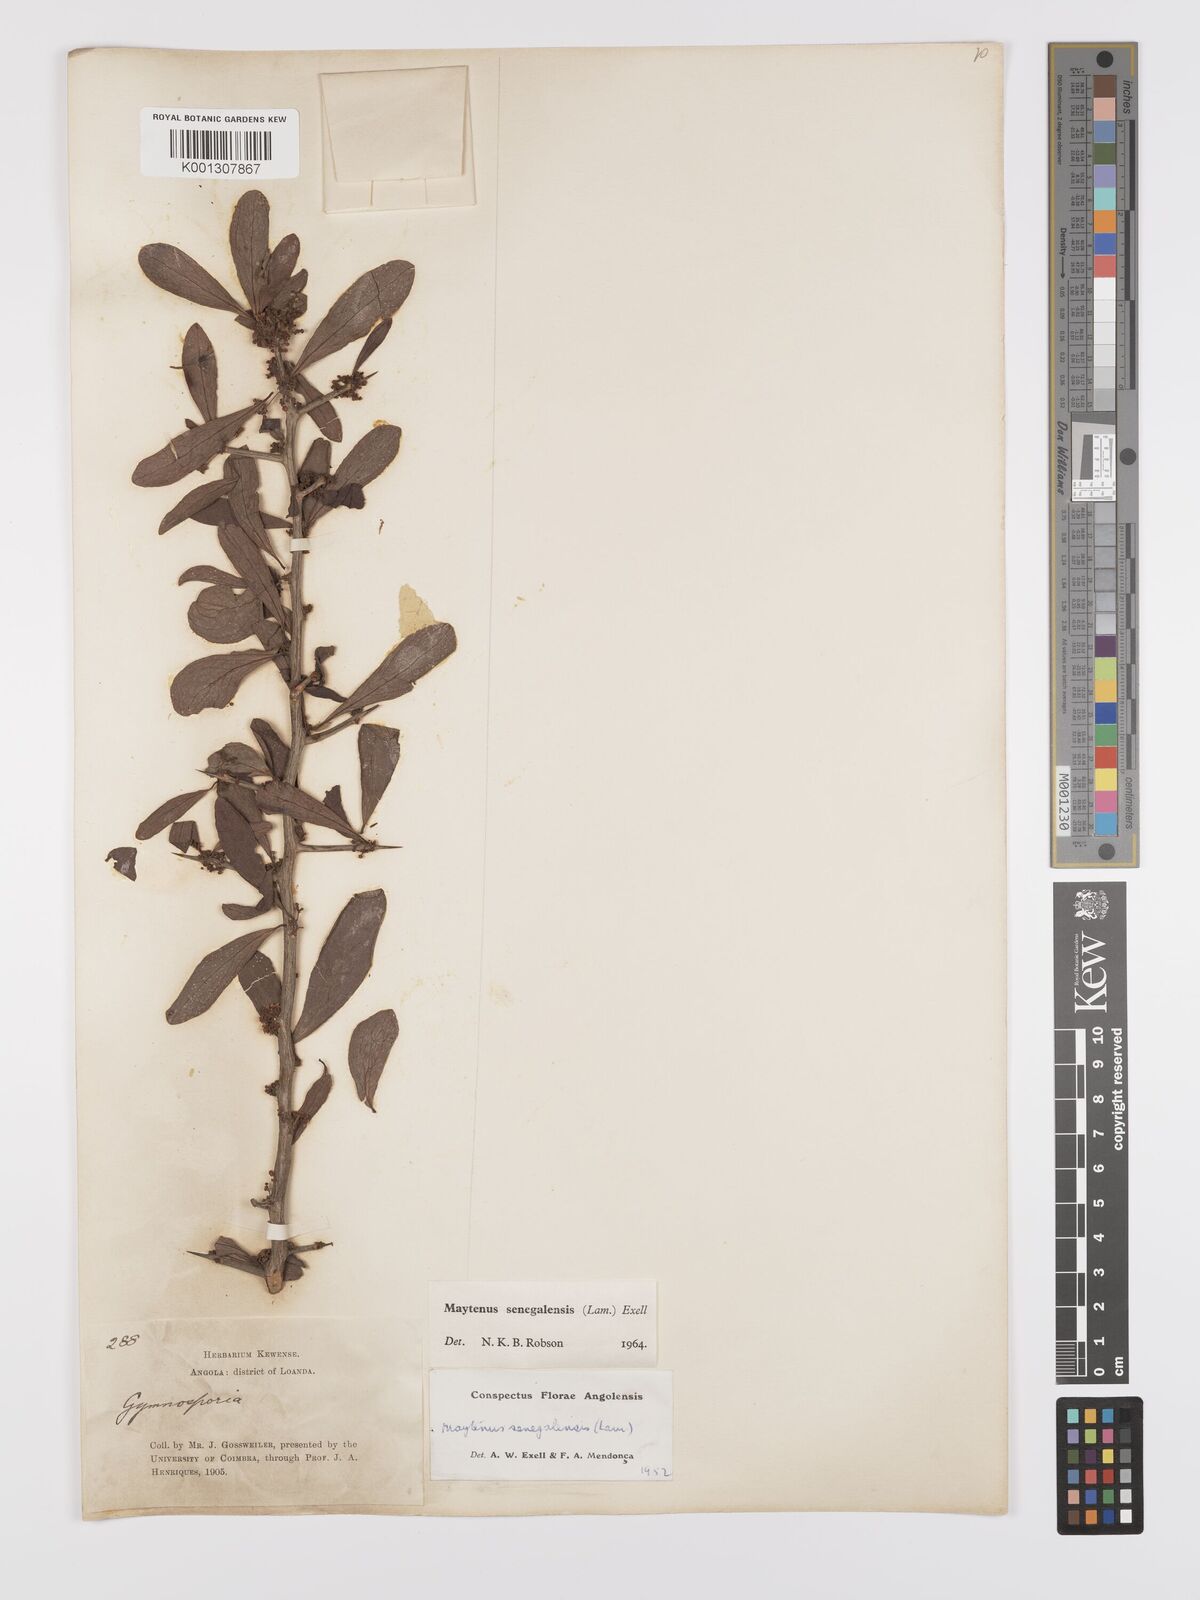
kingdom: Plantae
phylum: Tracheophyta
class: Magnoliopsida
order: Celastrales
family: Celastraceae
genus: Gymnosporia
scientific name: Gymnosporia senegalensis
